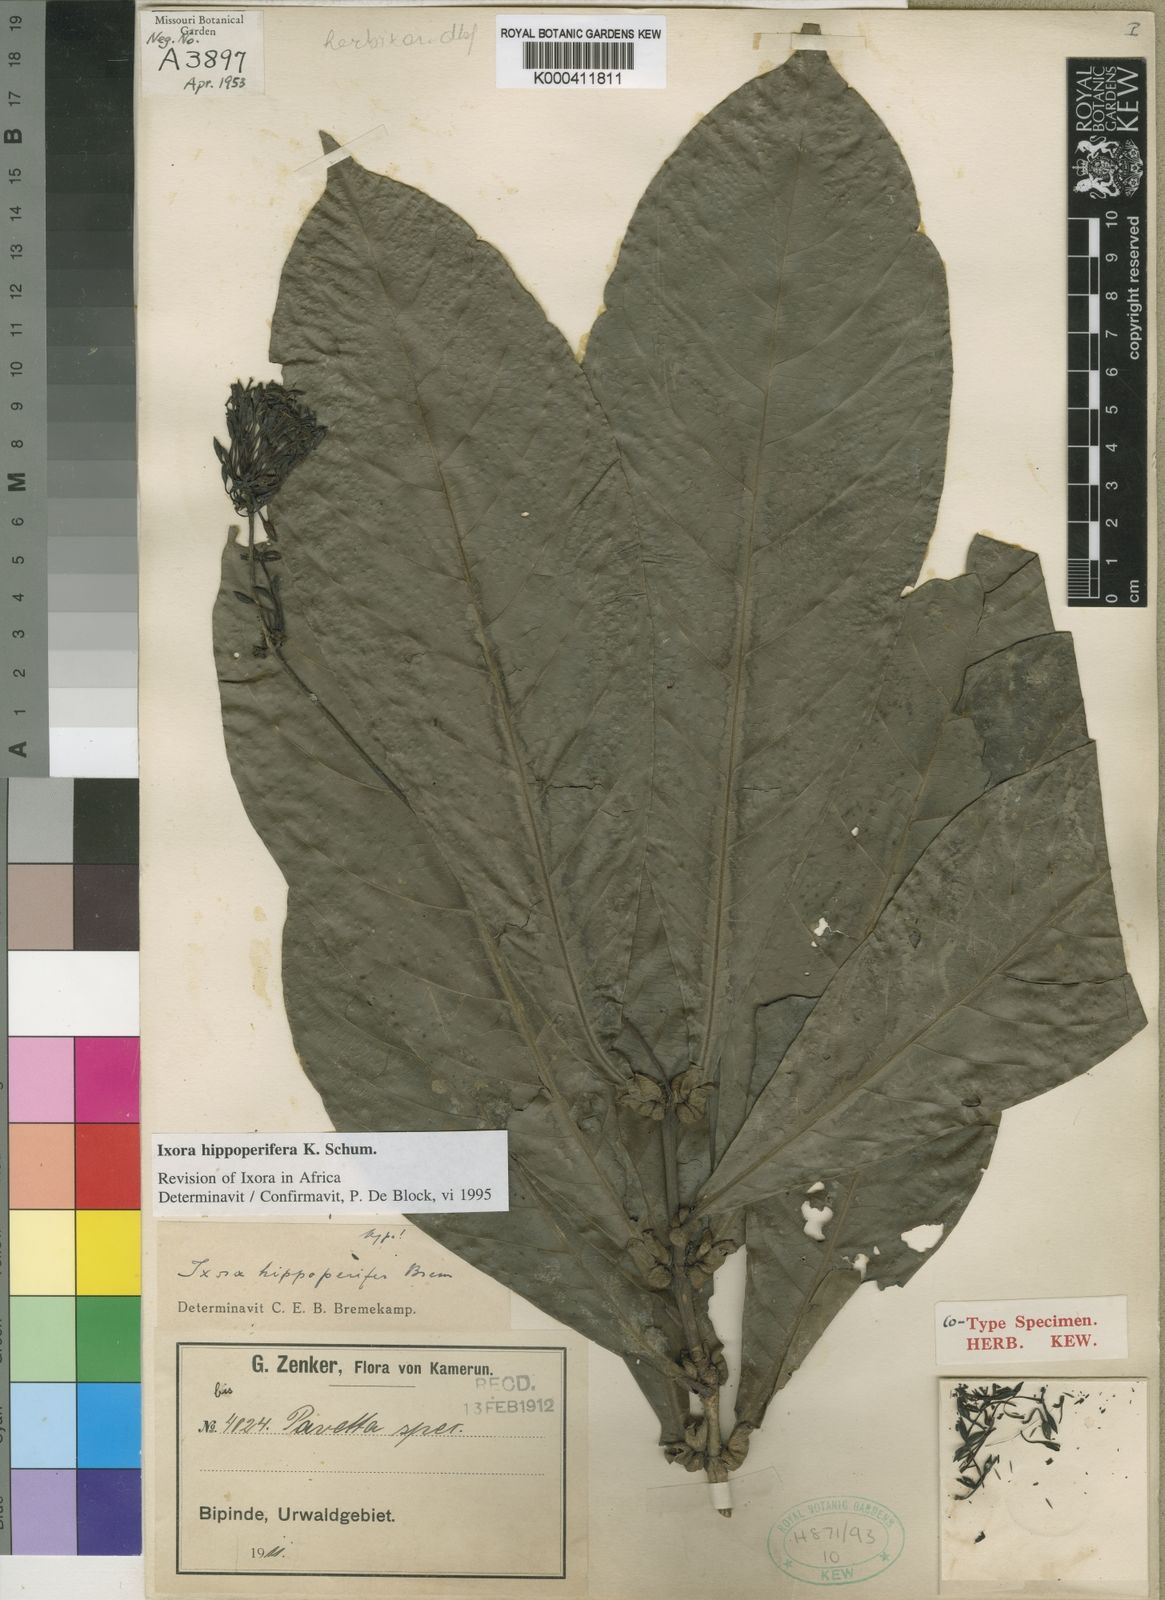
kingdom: Plantae
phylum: Tracheophyta
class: Magnoliopsida
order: Gentianales
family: Rubiaceae
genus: Ixora
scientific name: Ixora hippoperifera
